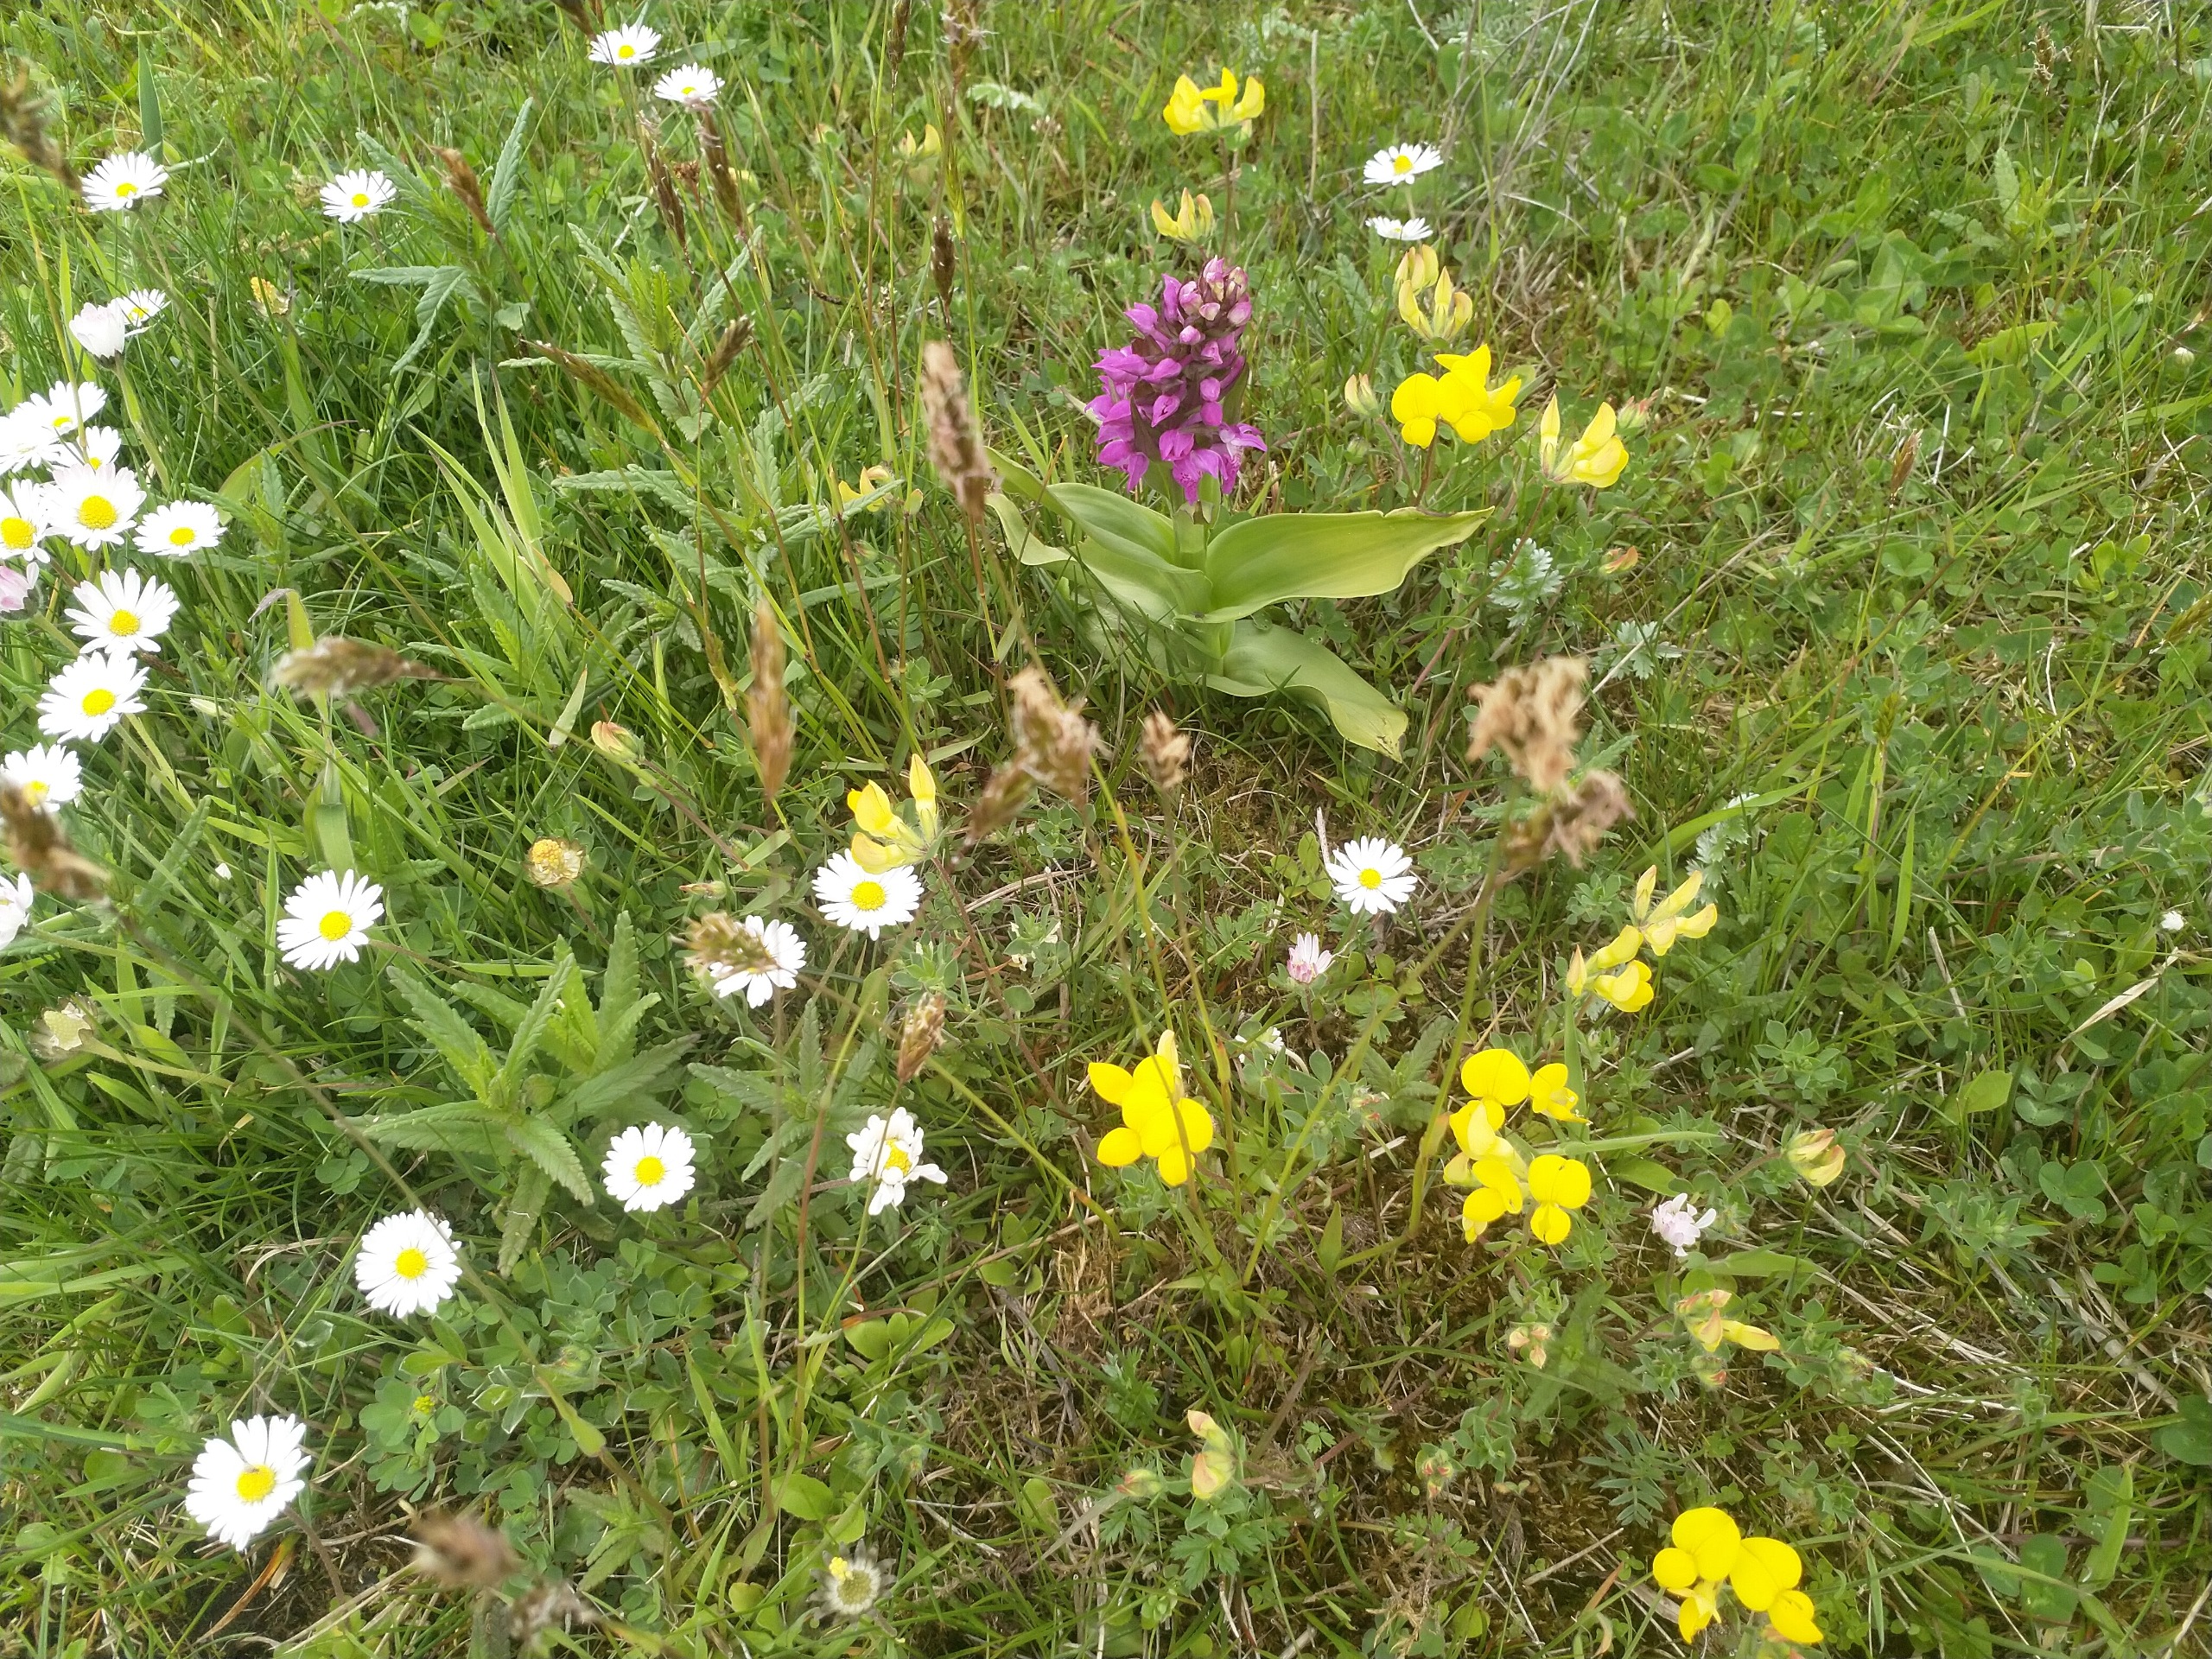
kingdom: Plantae
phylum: Tracheophyta
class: Magnoliopsida
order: Asterales
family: Asteraceae
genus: Bellis
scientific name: Bellis
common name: Tusindfrydslægten
